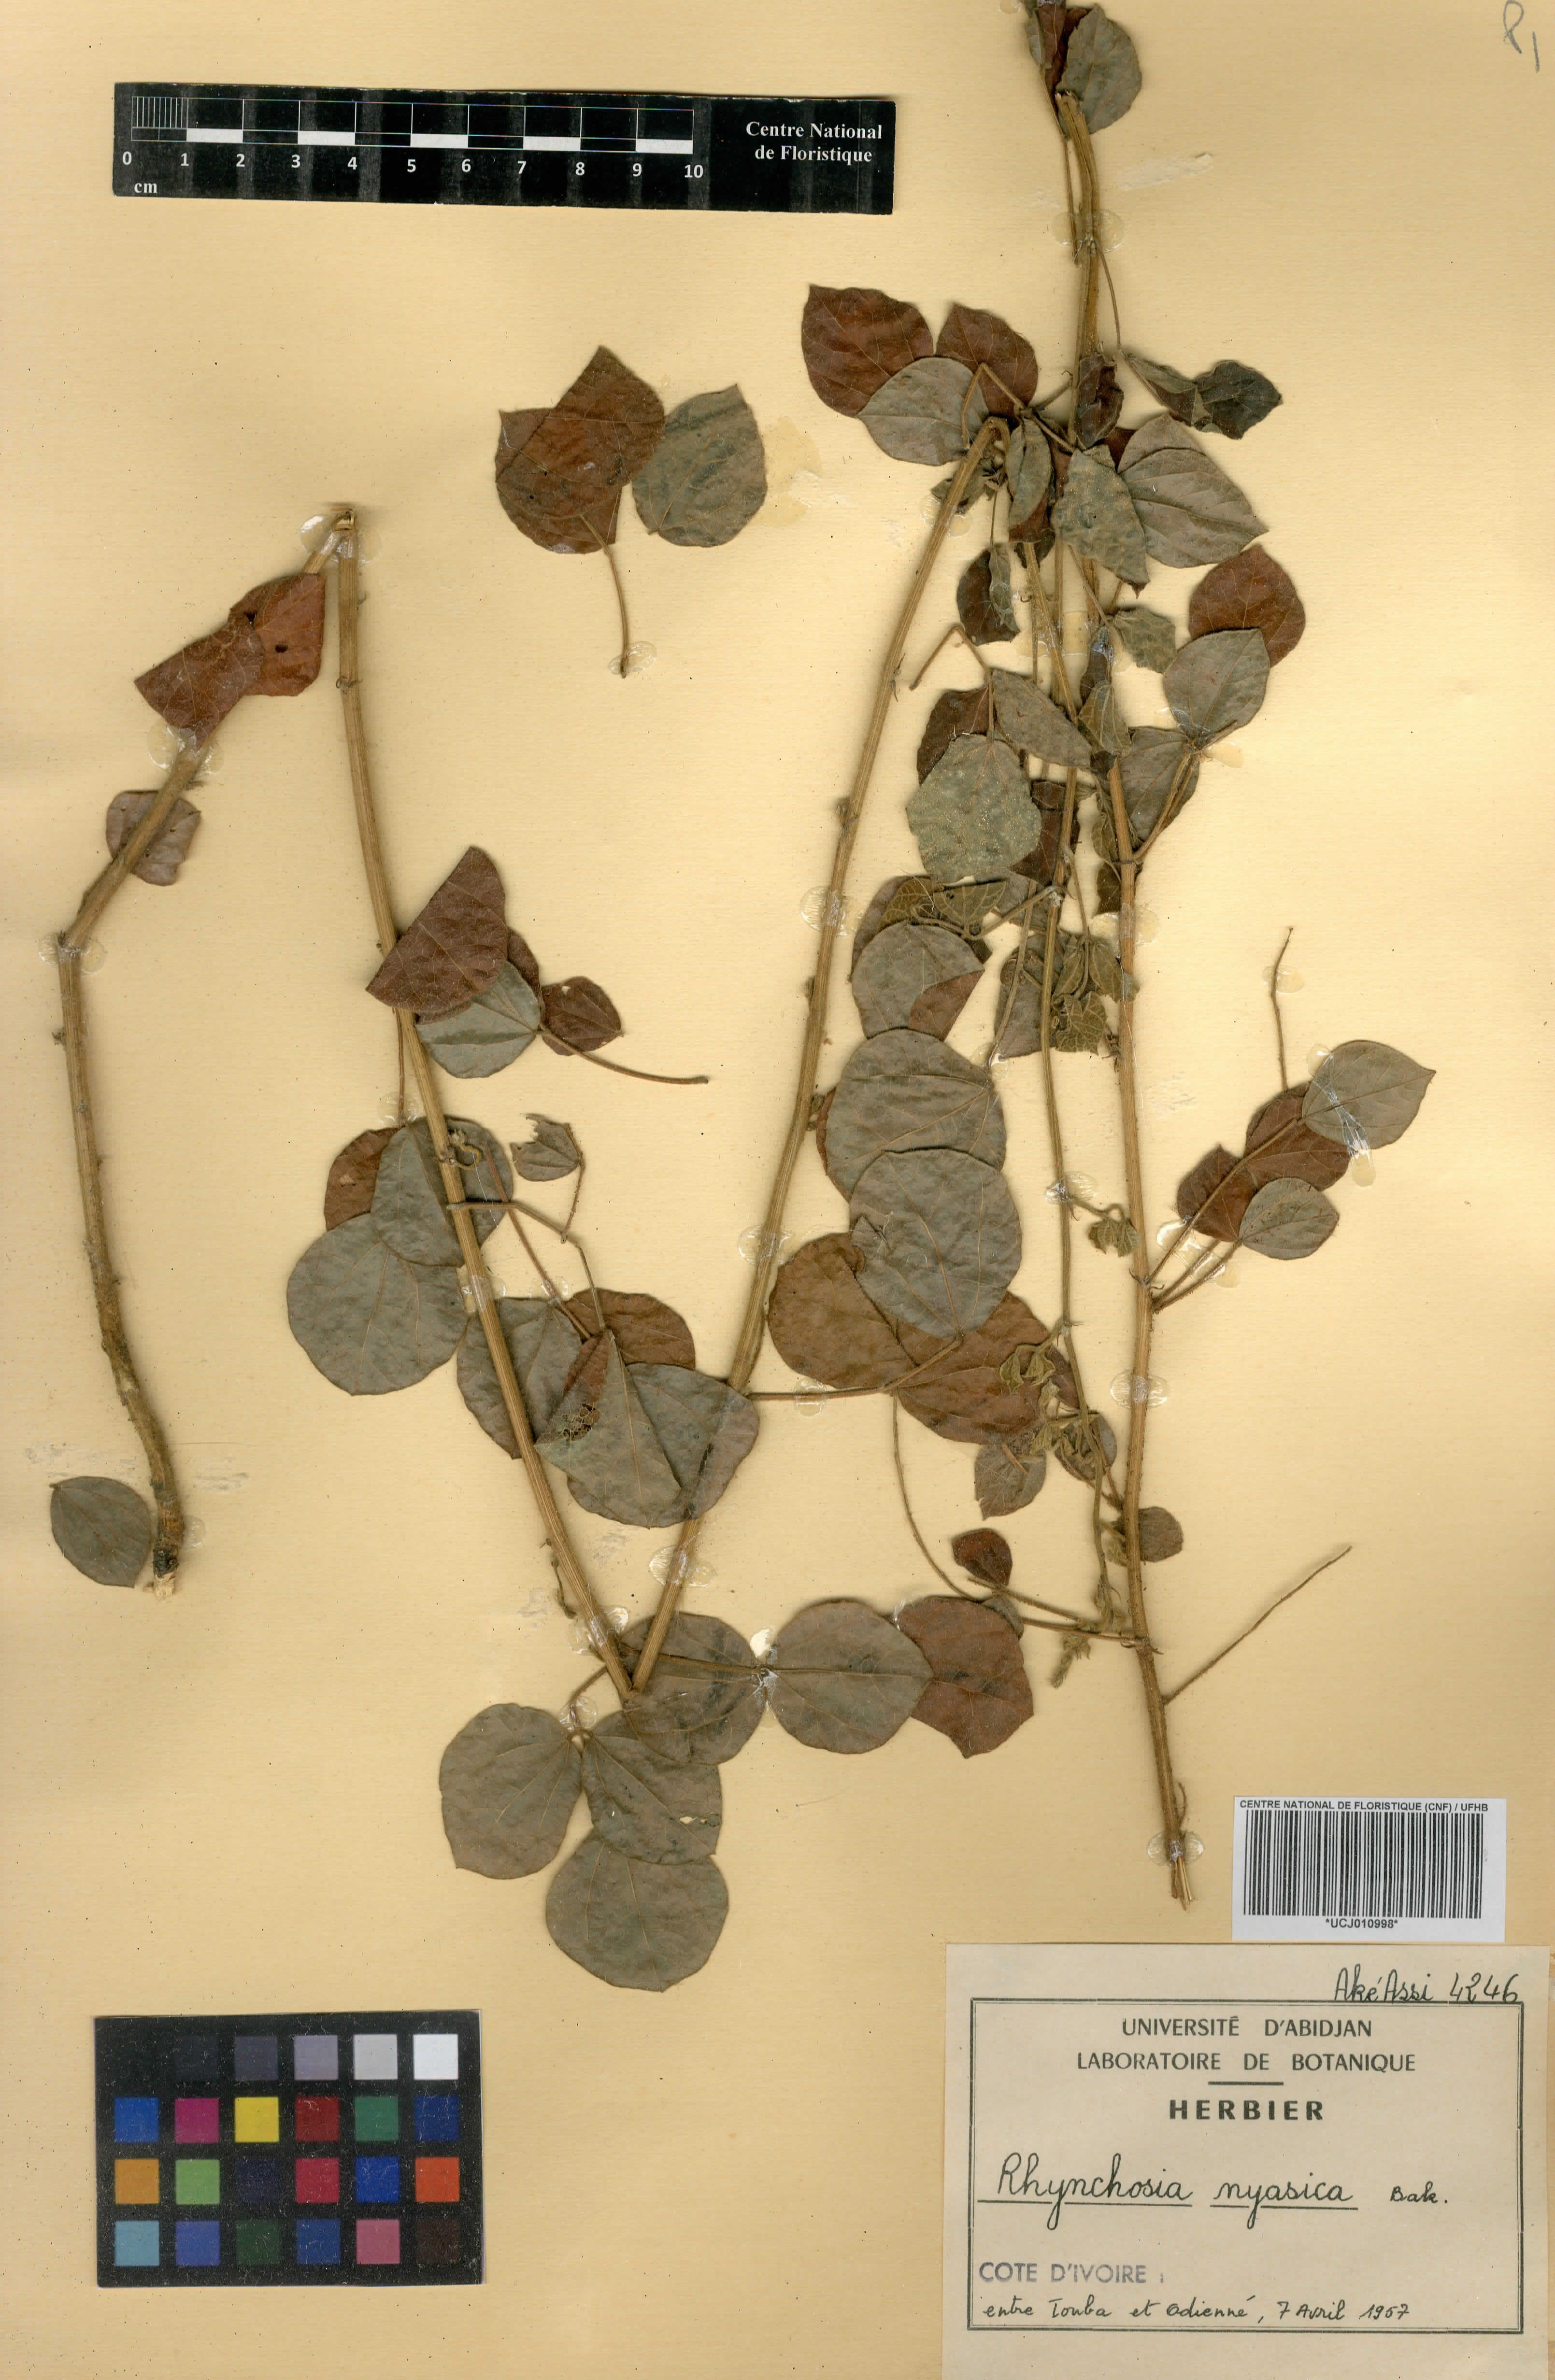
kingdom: Plantae
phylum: Tracheophyta
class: Magnoliopsida
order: Fabales
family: Fabaceae
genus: Rhynchosia
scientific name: Rhynchosia nyasica
